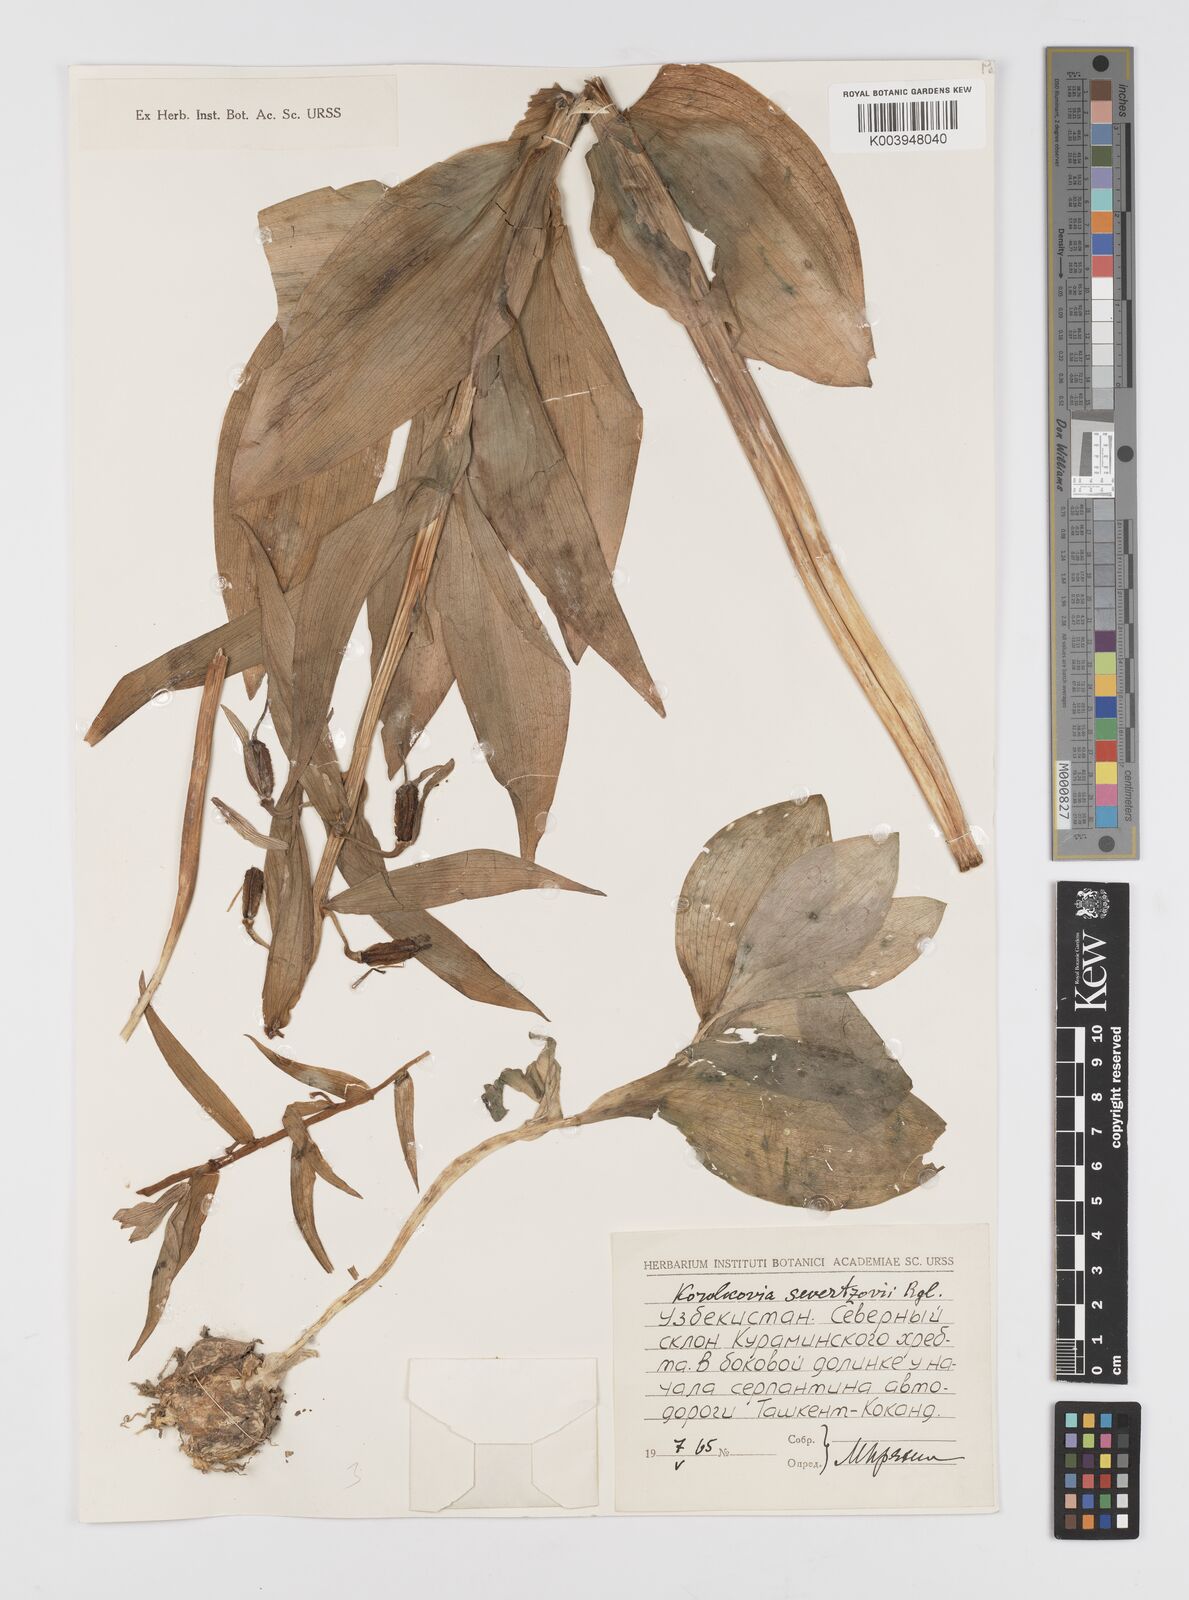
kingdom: Plantae
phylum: Tracheophyta
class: Liliopsida
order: Liliales
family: Liliaceae
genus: Fritillaria
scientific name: Fritillaria
